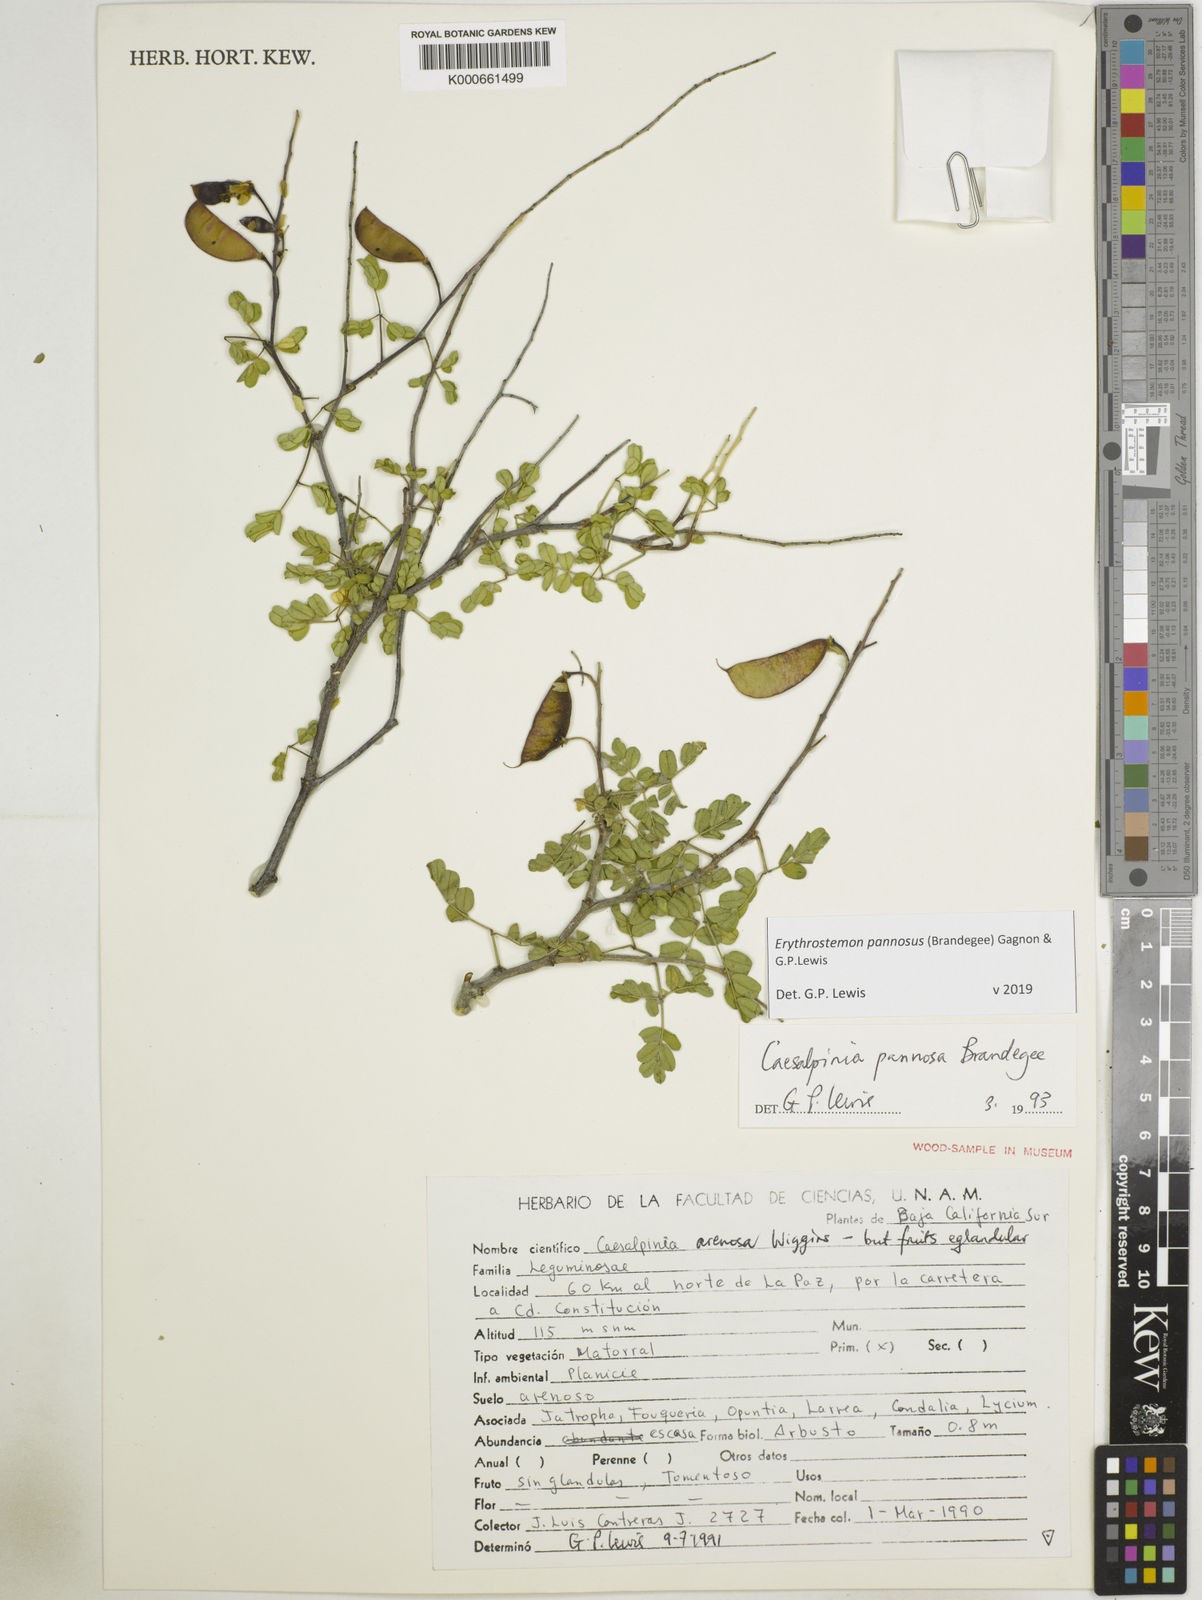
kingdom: Plantae
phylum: Tracheophyta
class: Magnoliopsida
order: Fabales
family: Fabaceae
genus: Erythrostemon
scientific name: Erythrostemon pannosus
